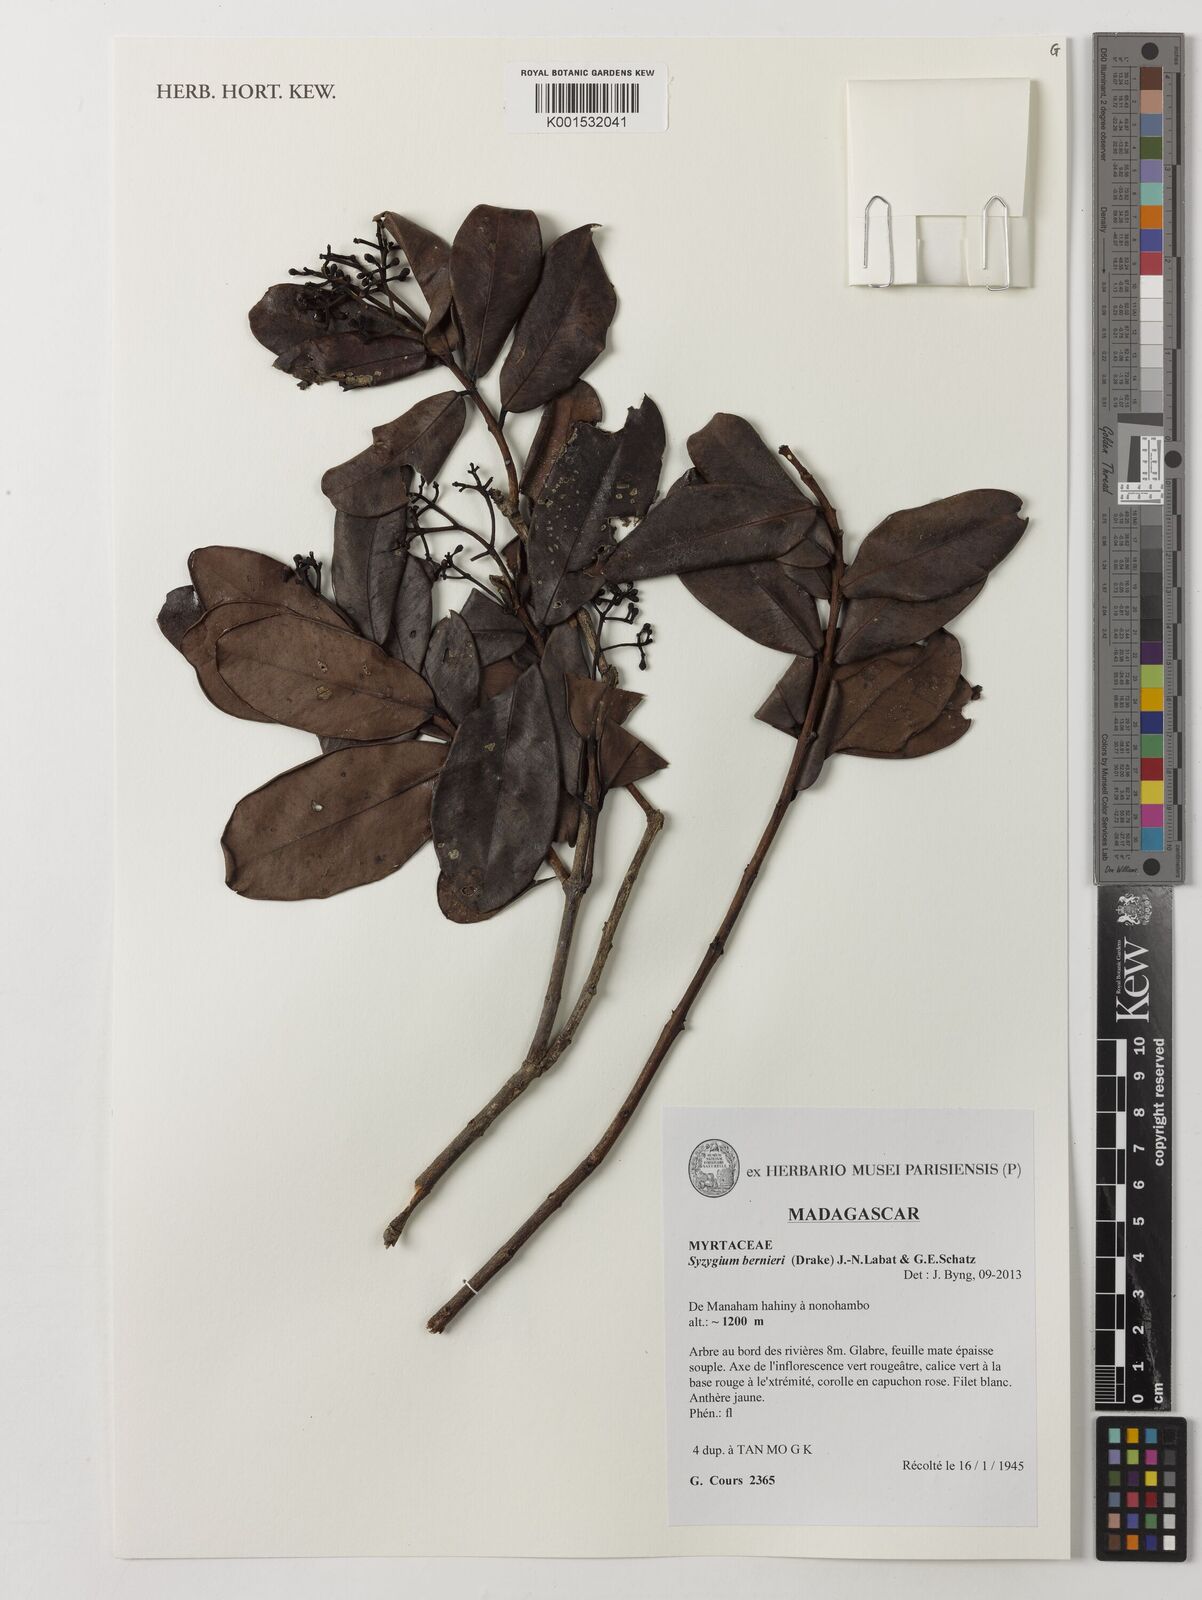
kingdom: Plantae
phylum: Tracheophyta
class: Magnoliopsida
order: Myrtales
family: Myrtaceae
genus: Syzygium
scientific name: Syzygium bernieri
